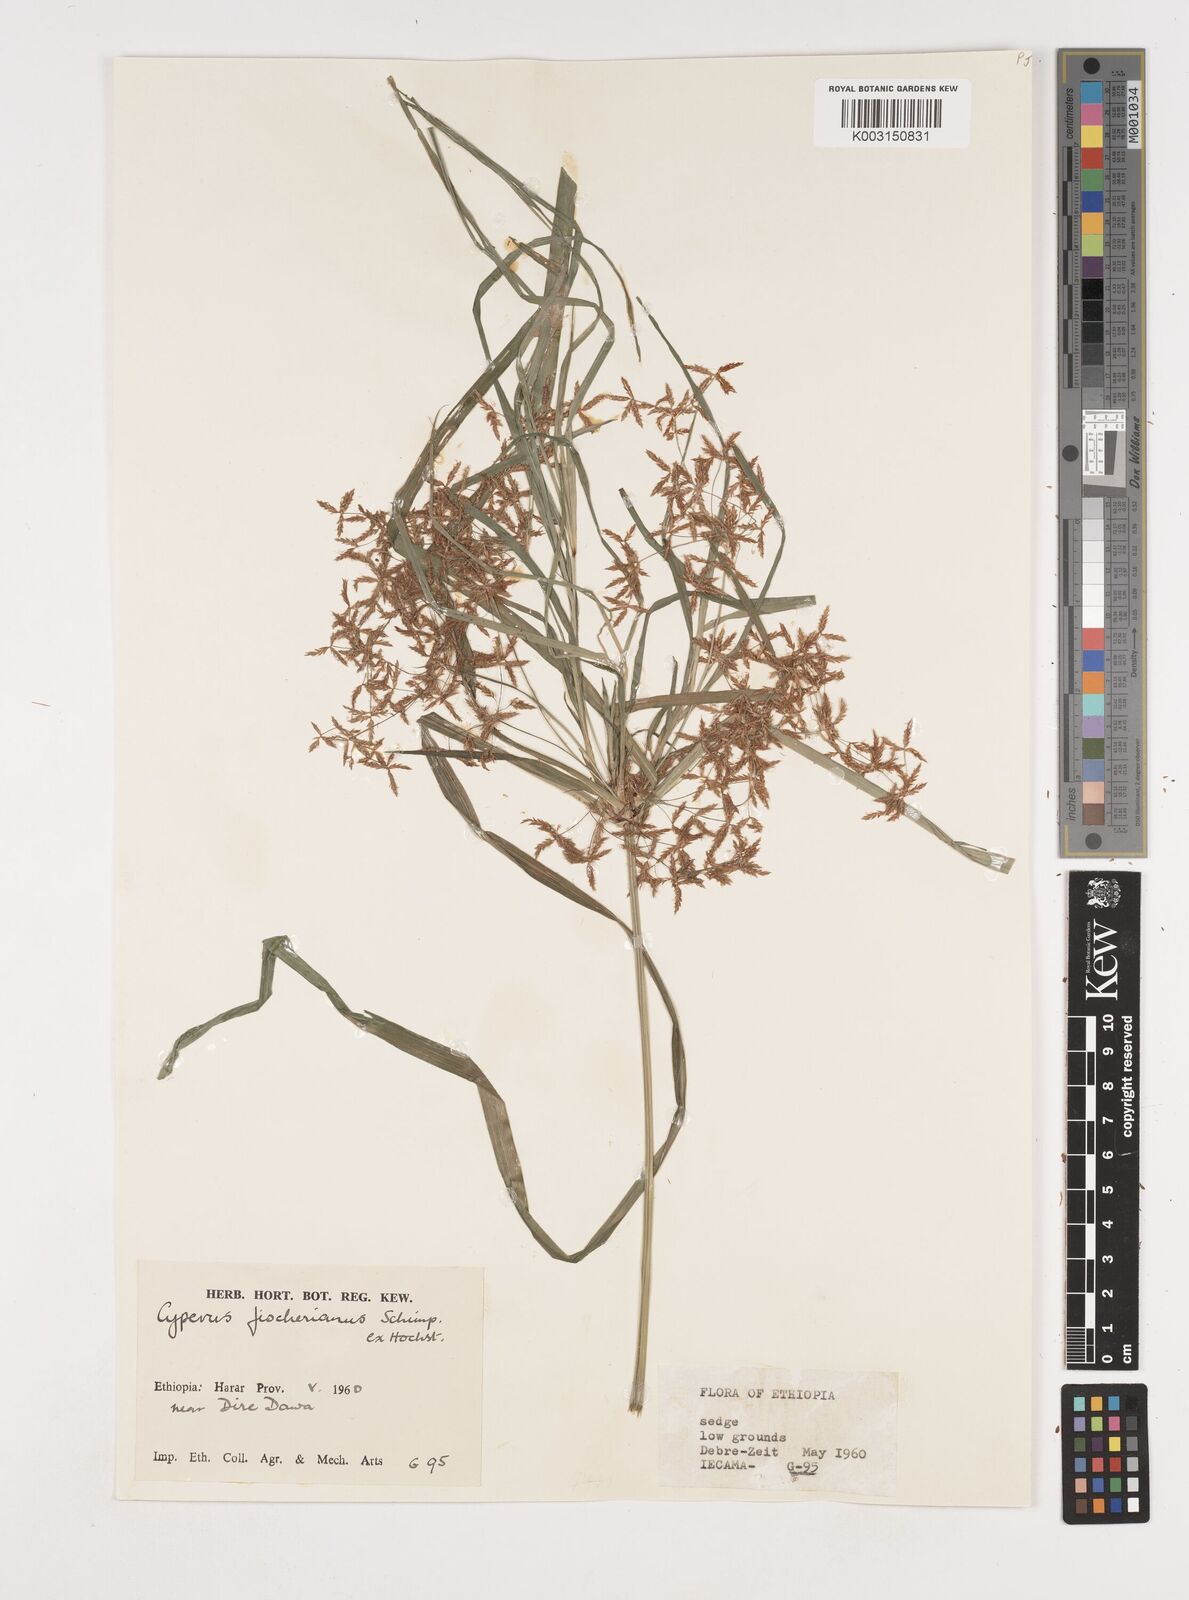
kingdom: Plantae
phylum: Tracheophyta
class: Liliopsida
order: Poales
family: Cyperaceae
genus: Cyperus
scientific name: Cyperus fischerianus
